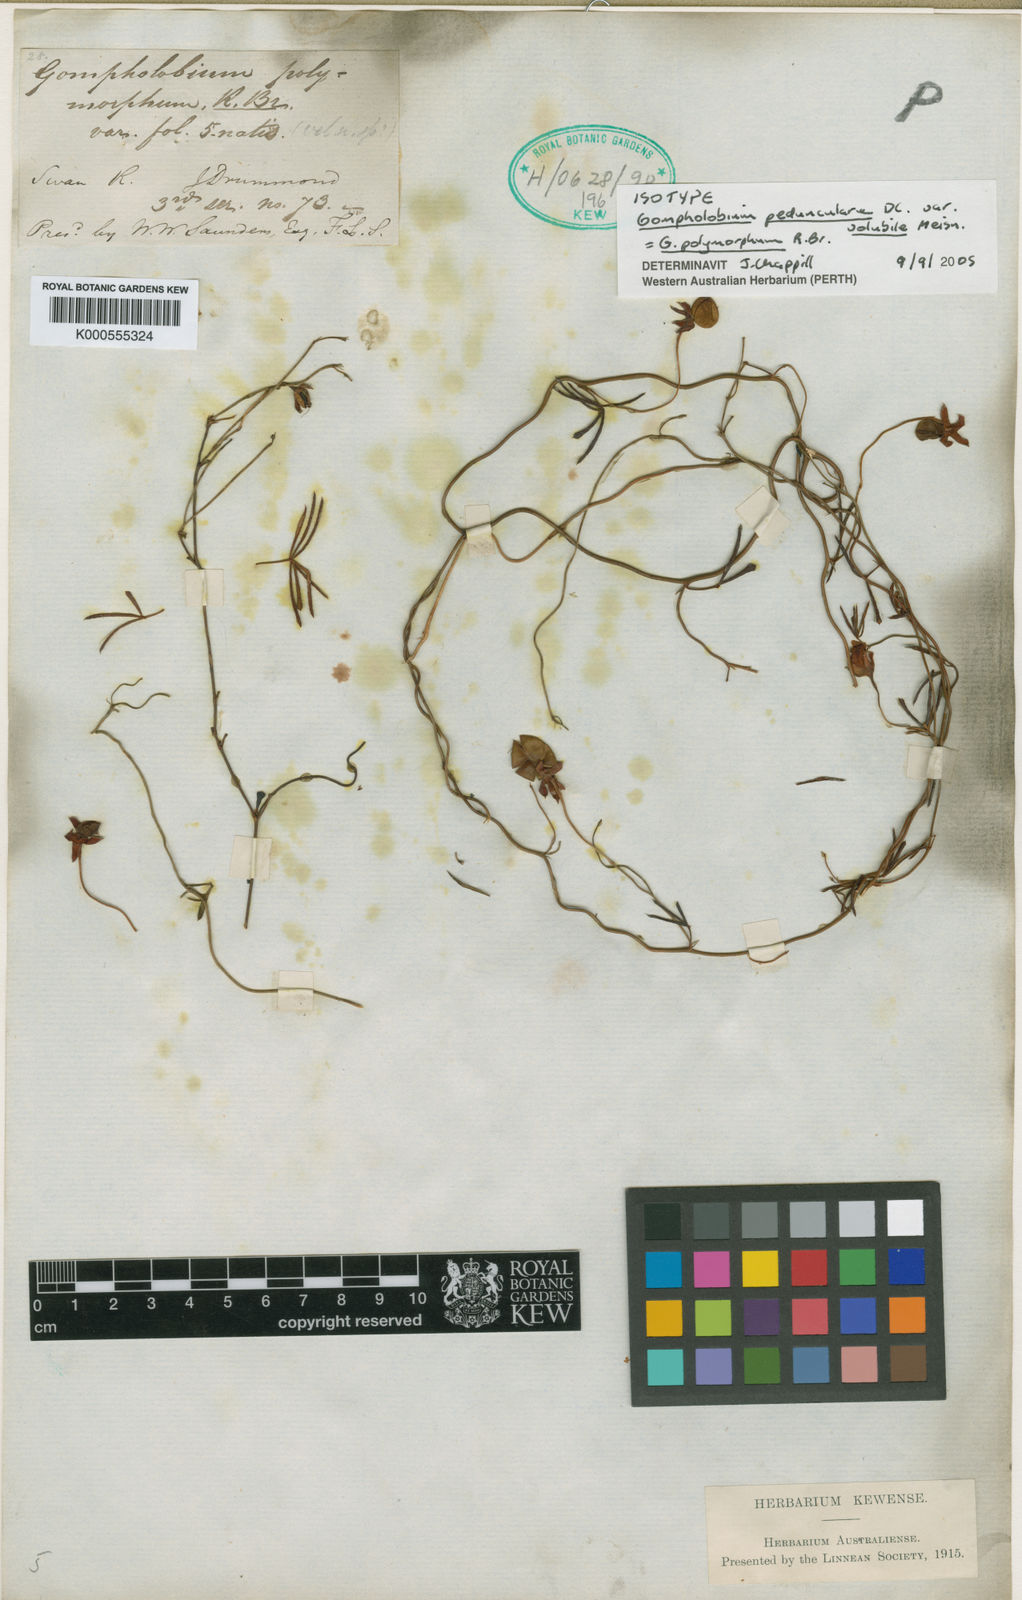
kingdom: Plantae
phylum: Tracheophyta
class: Magnoliopsida
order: Fabales
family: Fabaceae
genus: Gompholobium
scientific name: Gompholobium polymorphum
